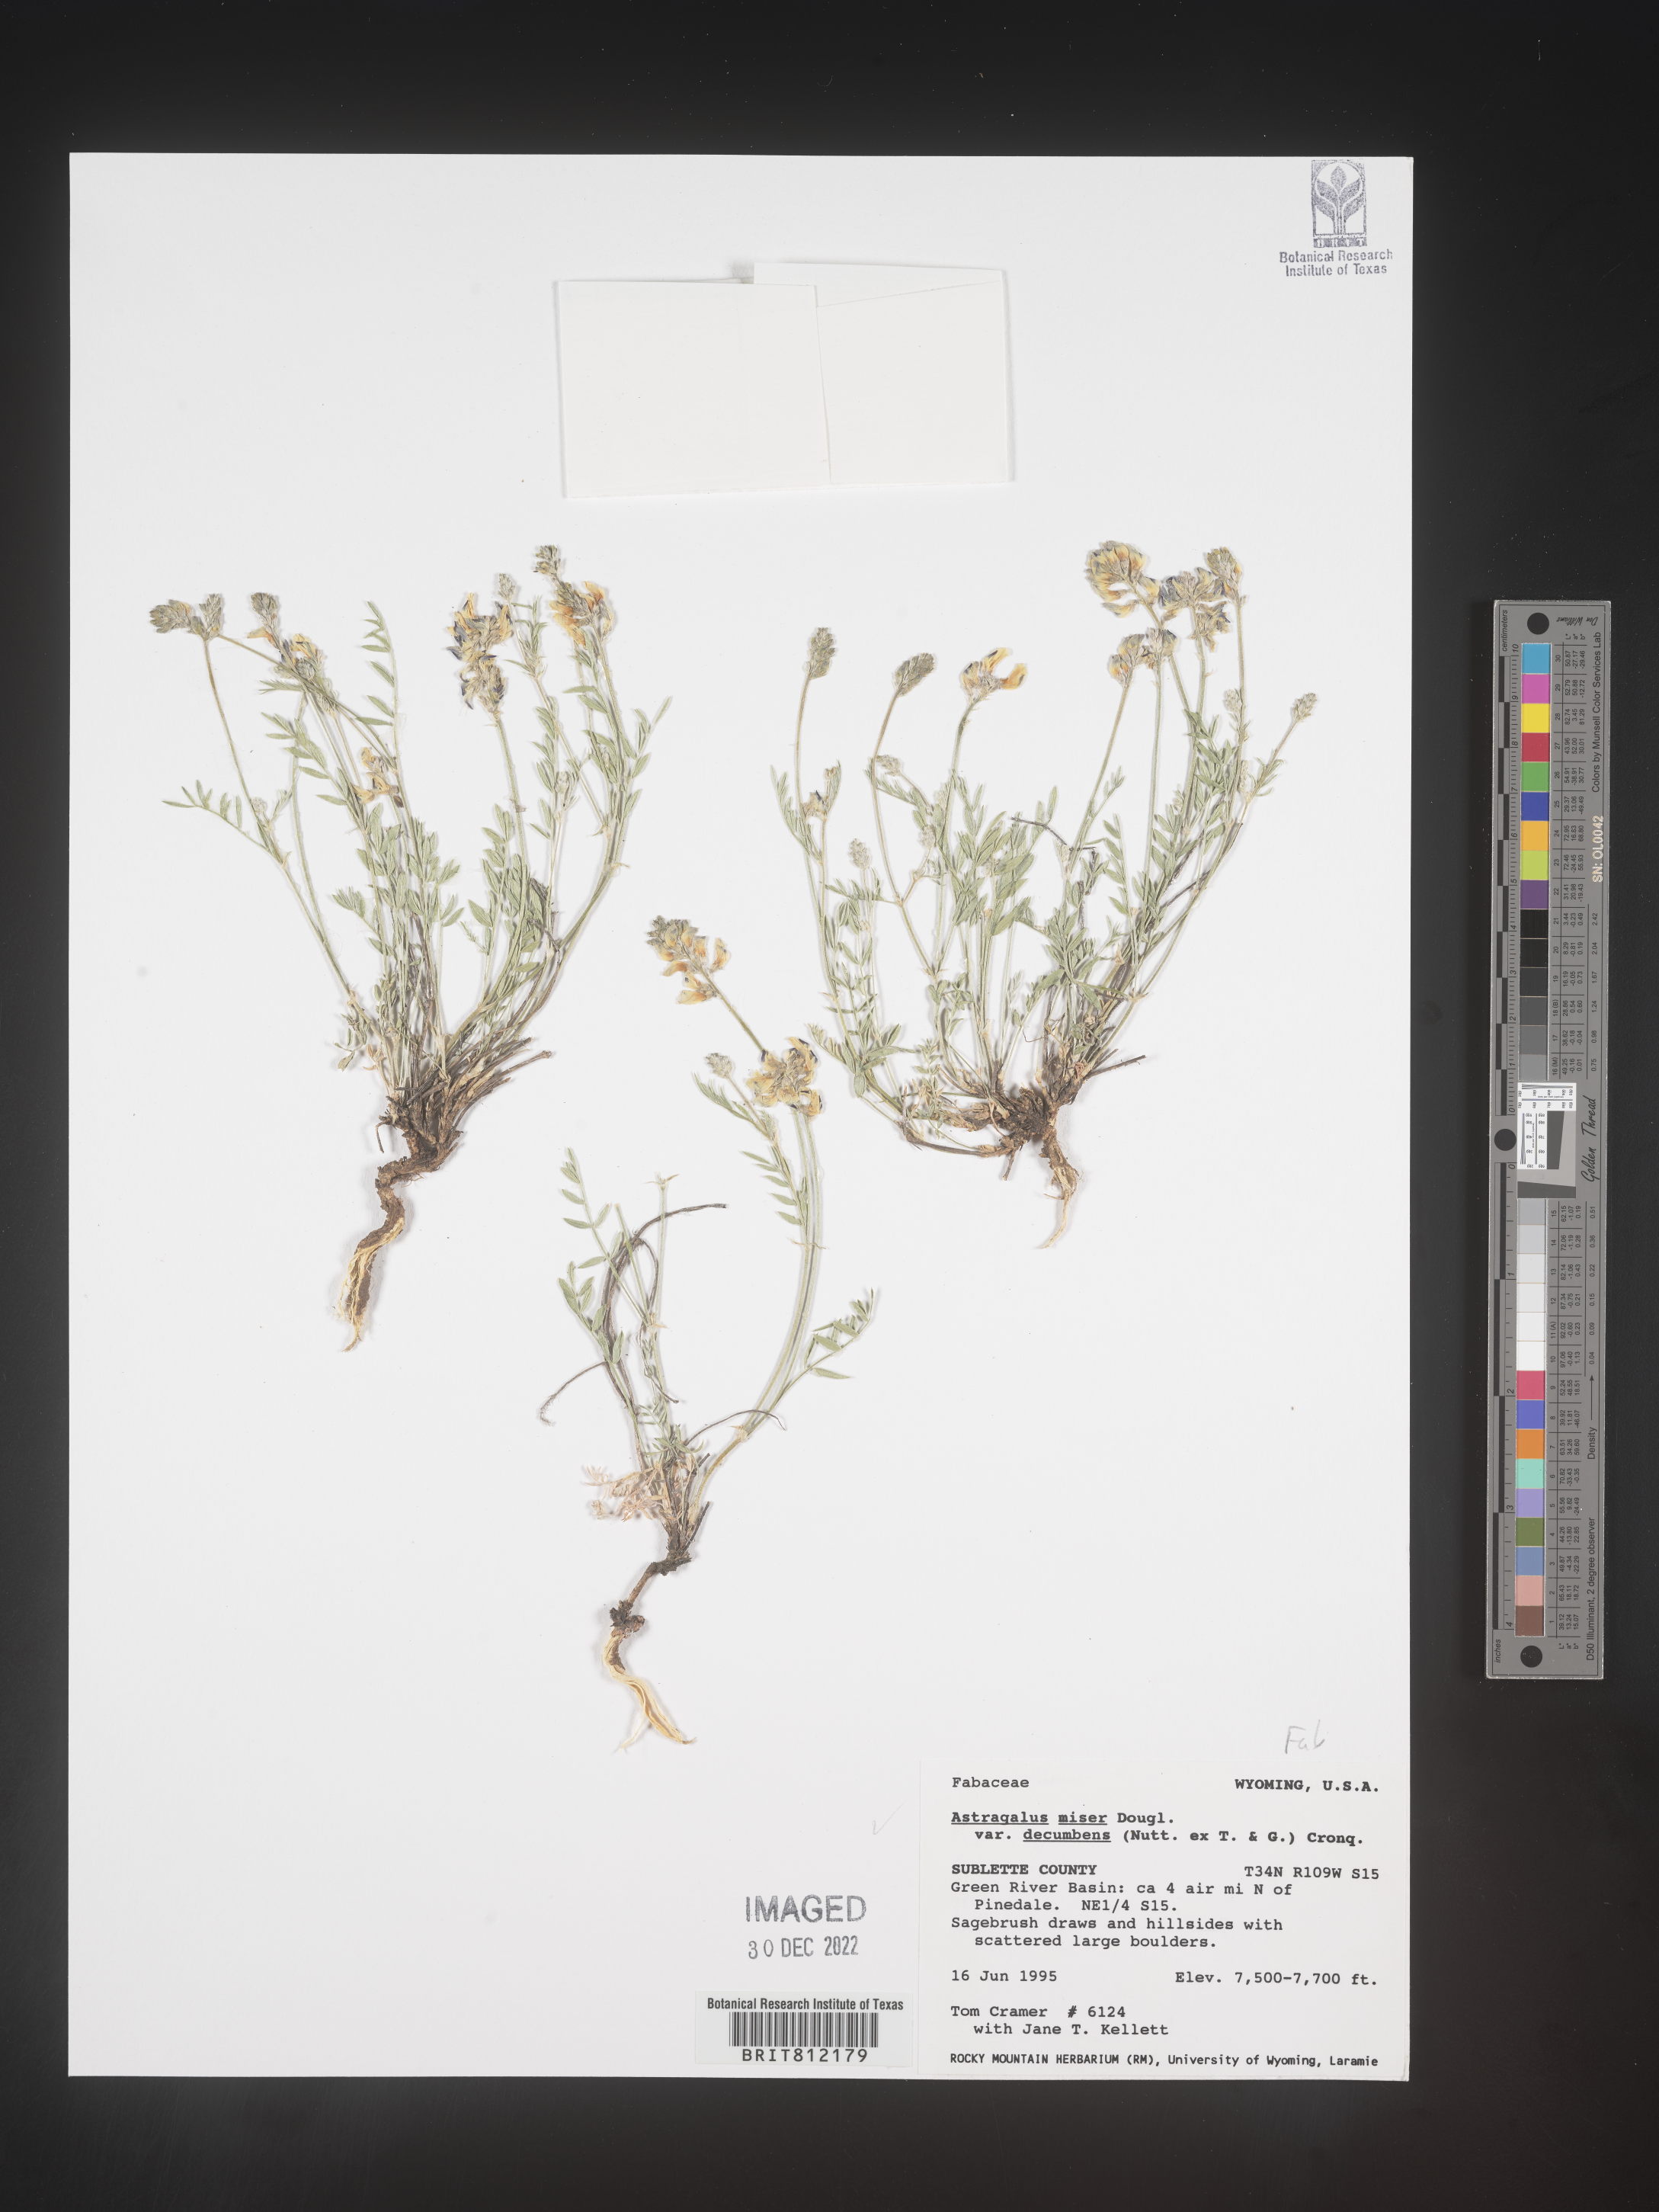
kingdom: Plantae
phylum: Tracheophyta
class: Magnoliopsida
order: Fabales
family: Fabaceae
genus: Astragalus
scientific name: Astragalus miser
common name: Timber milkvetch
